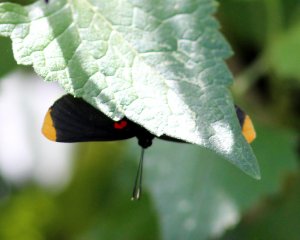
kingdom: Animalia
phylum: Arthropoda
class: Insecta
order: Lepidoptera
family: Lycaenidae
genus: Melanis
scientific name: Melanis pixe
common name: Red-bordered Pixie
